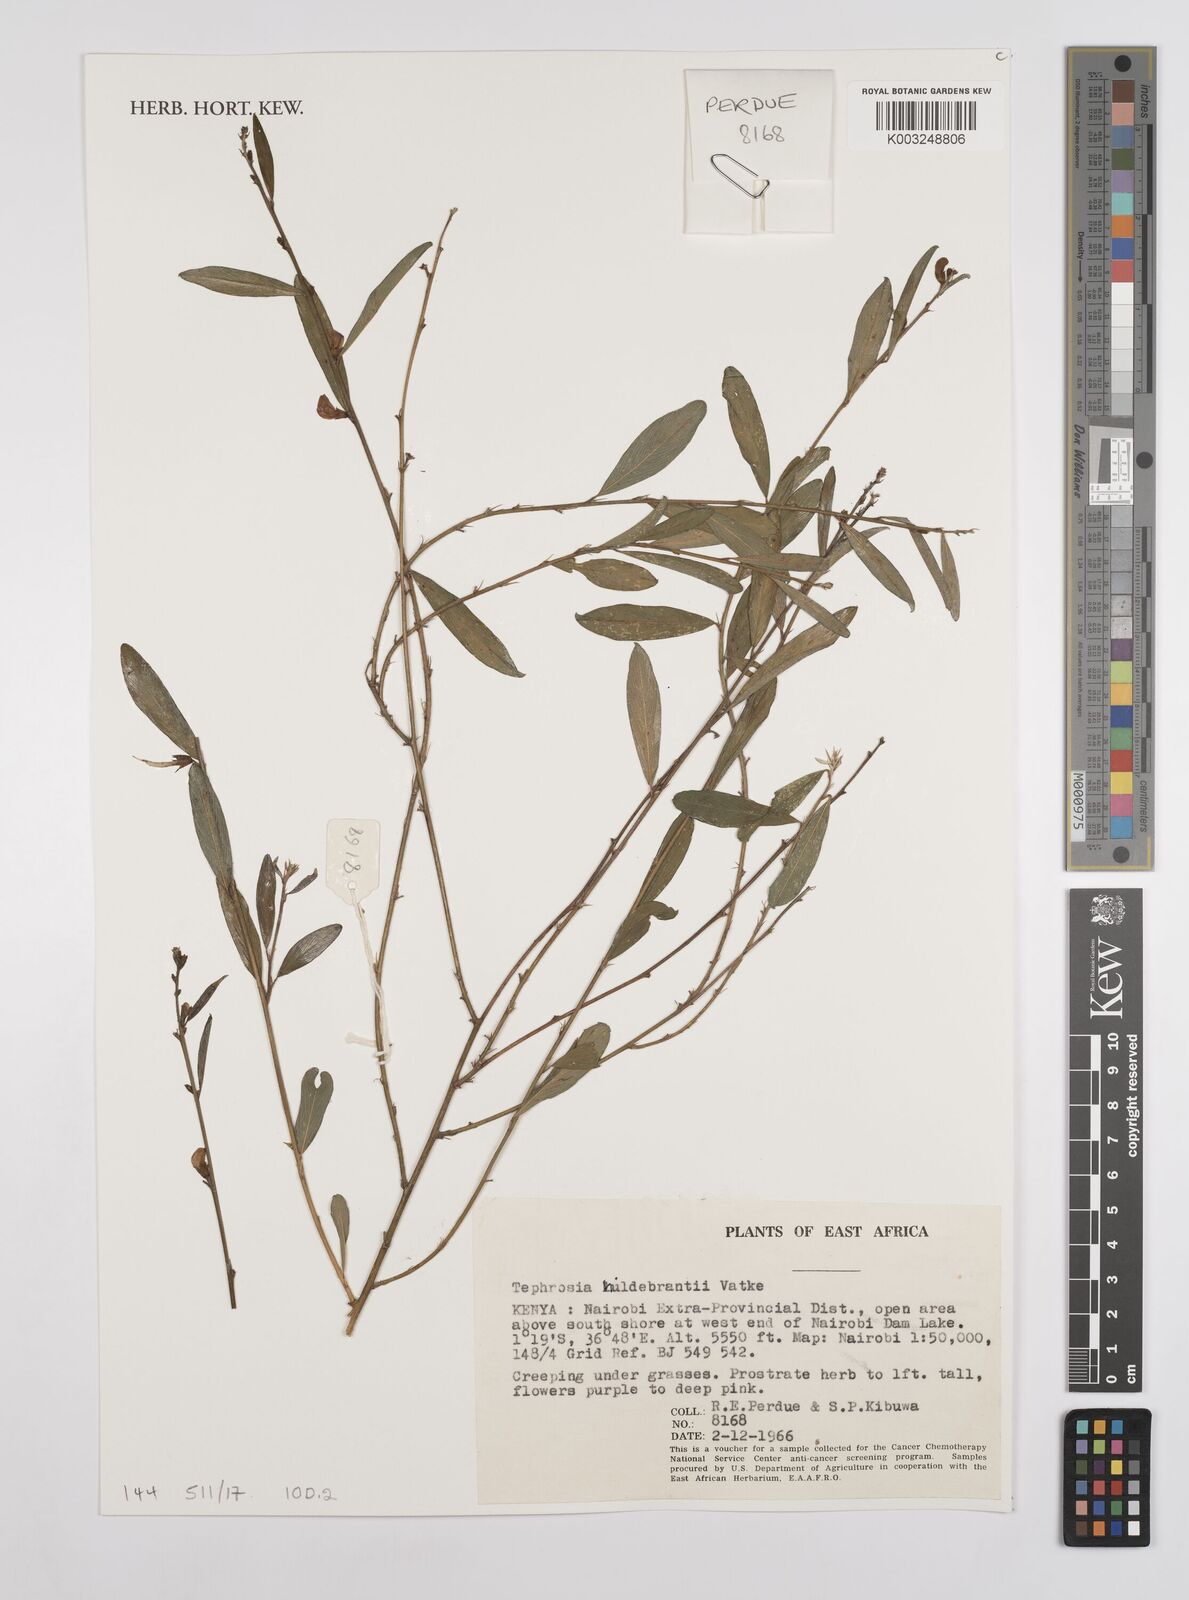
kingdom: Plantae
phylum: Tracheophyta
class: Magnoliopsida
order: Fabales
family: Fabaceae
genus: Tephrosia
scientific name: Tephrosia hildebrandtii
